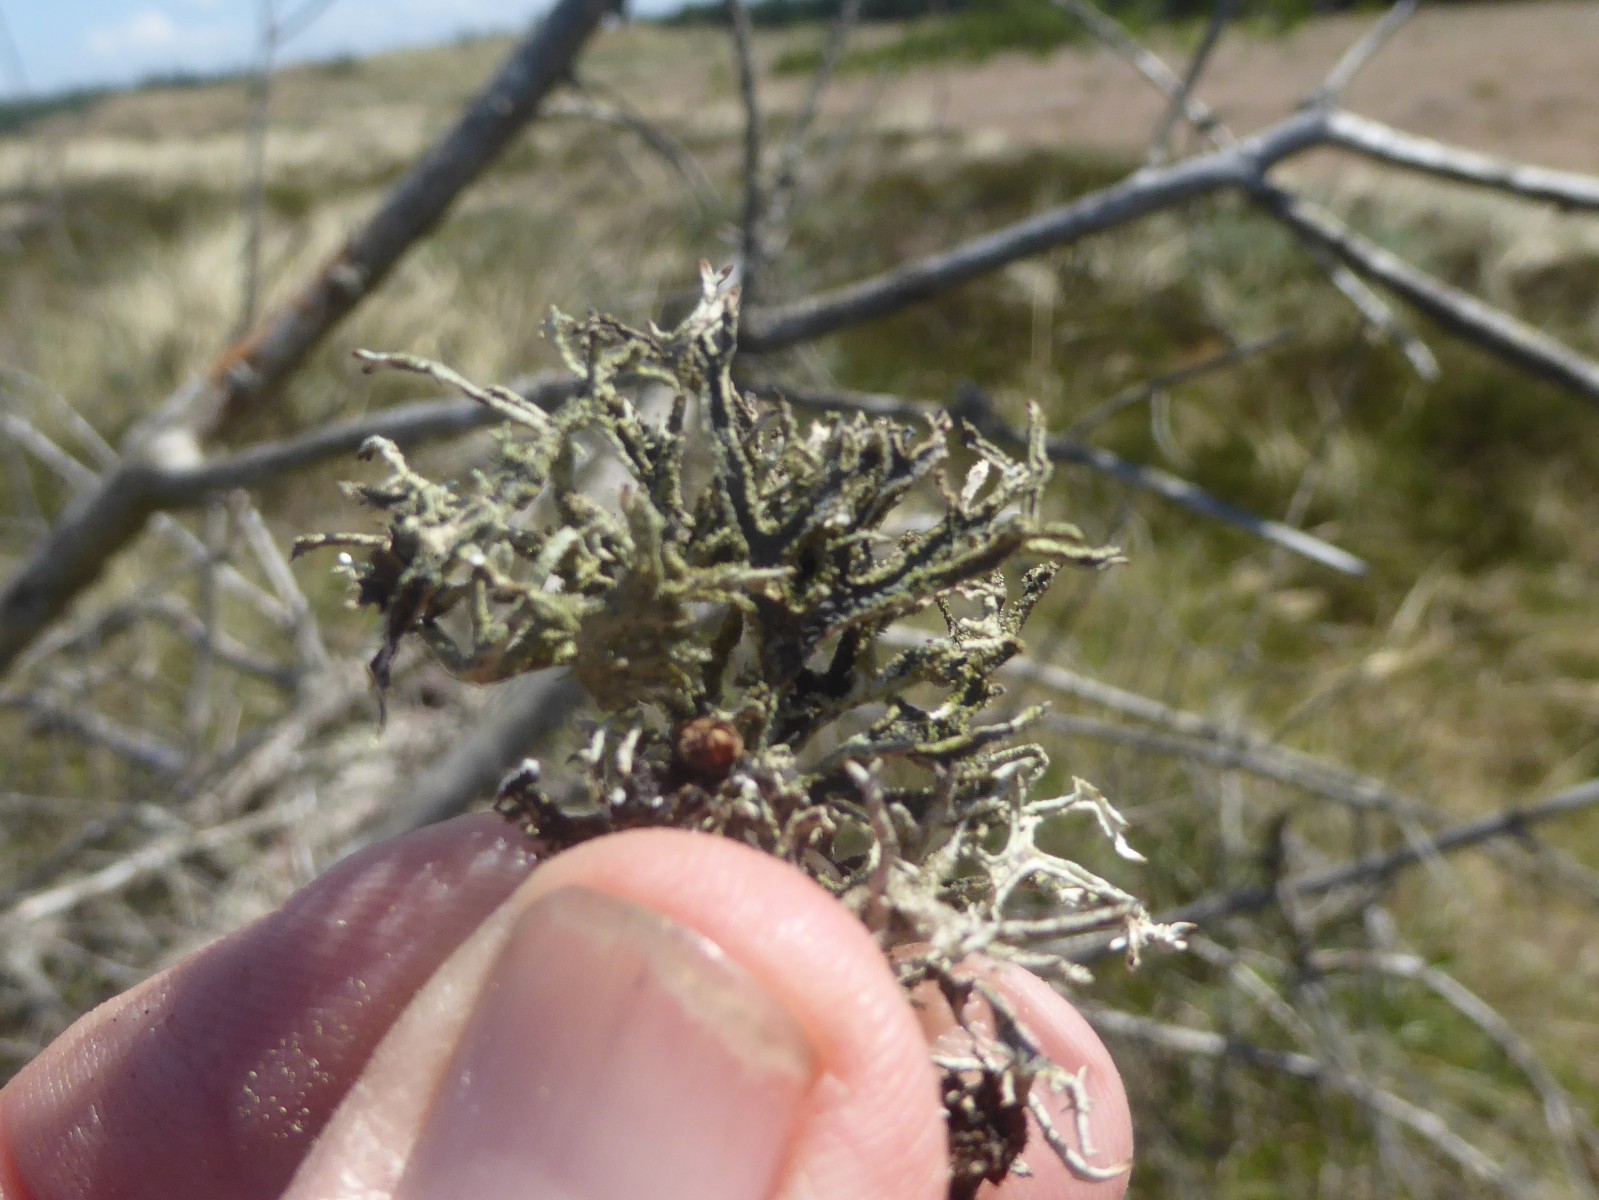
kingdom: Fungi
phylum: Ascomycota
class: Lecanoromycetes
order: Lecanorales
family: Parmeliaceae
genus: Pseudevernia
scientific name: Pseudevernia furfuracea
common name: grå fyrrelav
